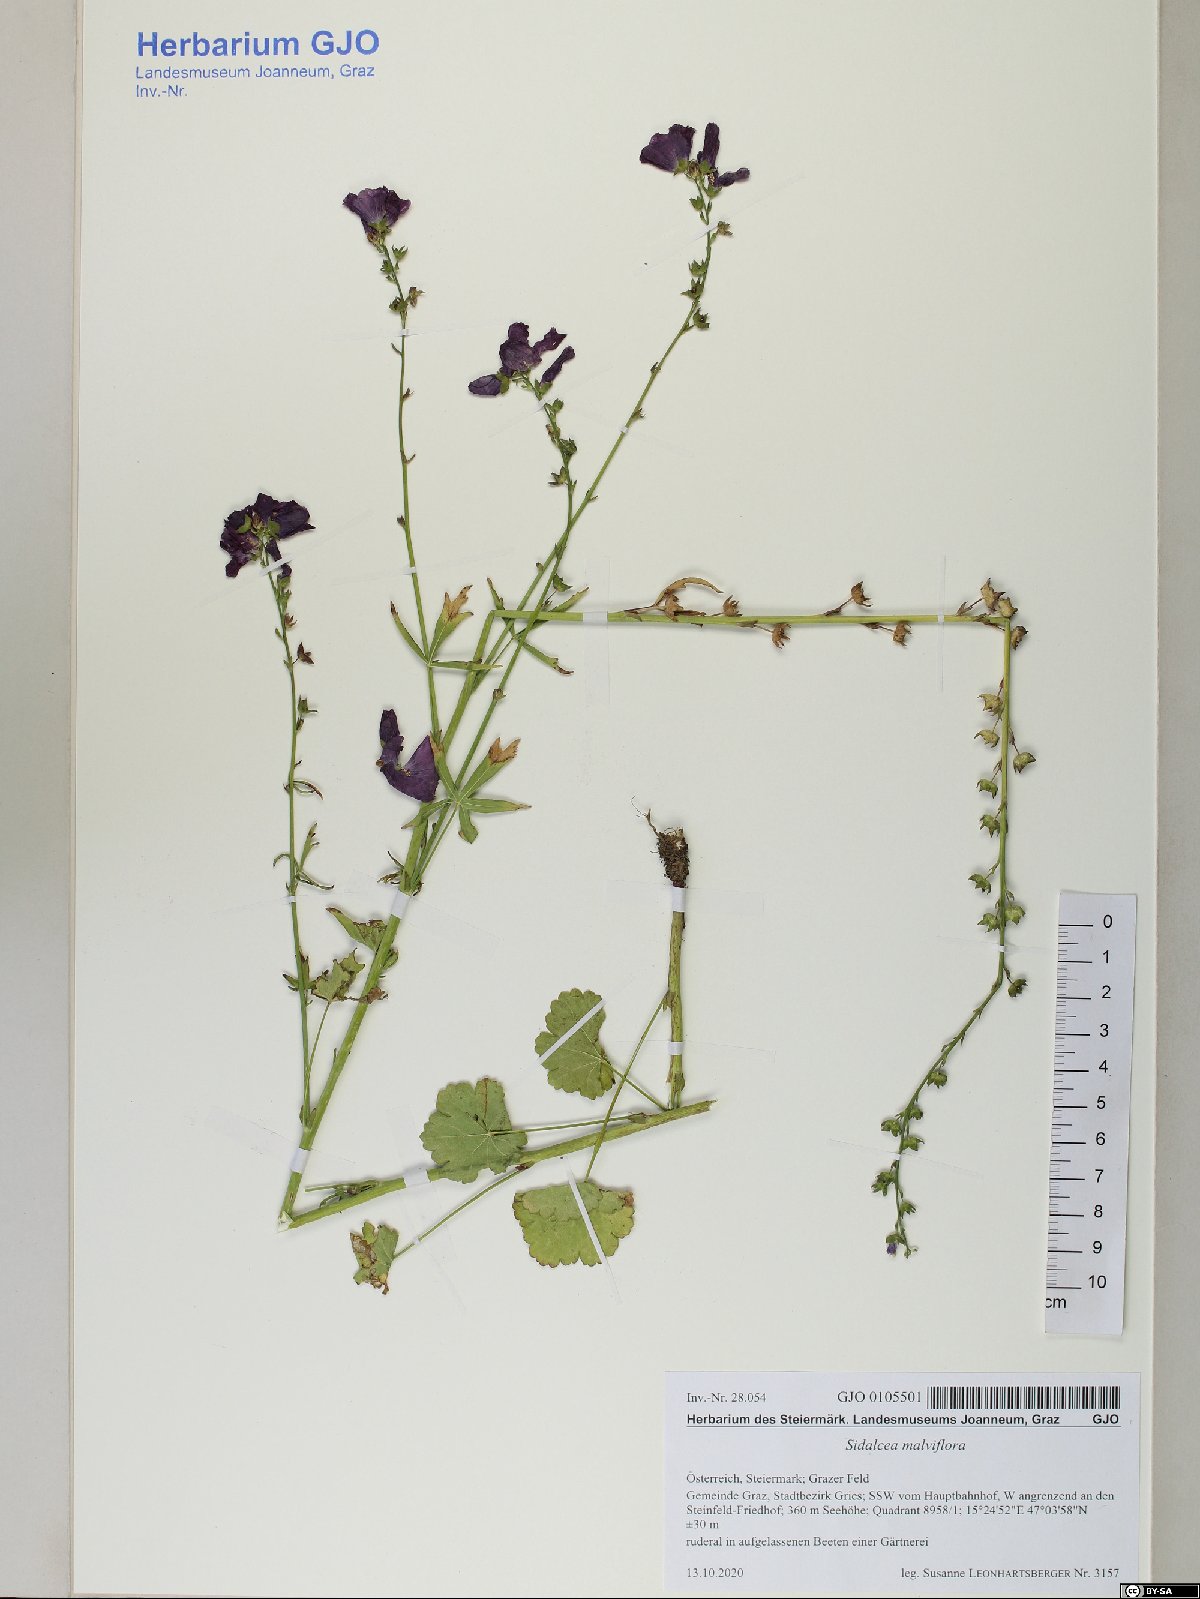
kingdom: Plantae
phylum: Tracheophyta
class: Magnoliopsida
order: Malvales
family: Malvaceae
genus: Sidalcea
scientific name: Sidalcea malviflora
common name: Greek mallow
